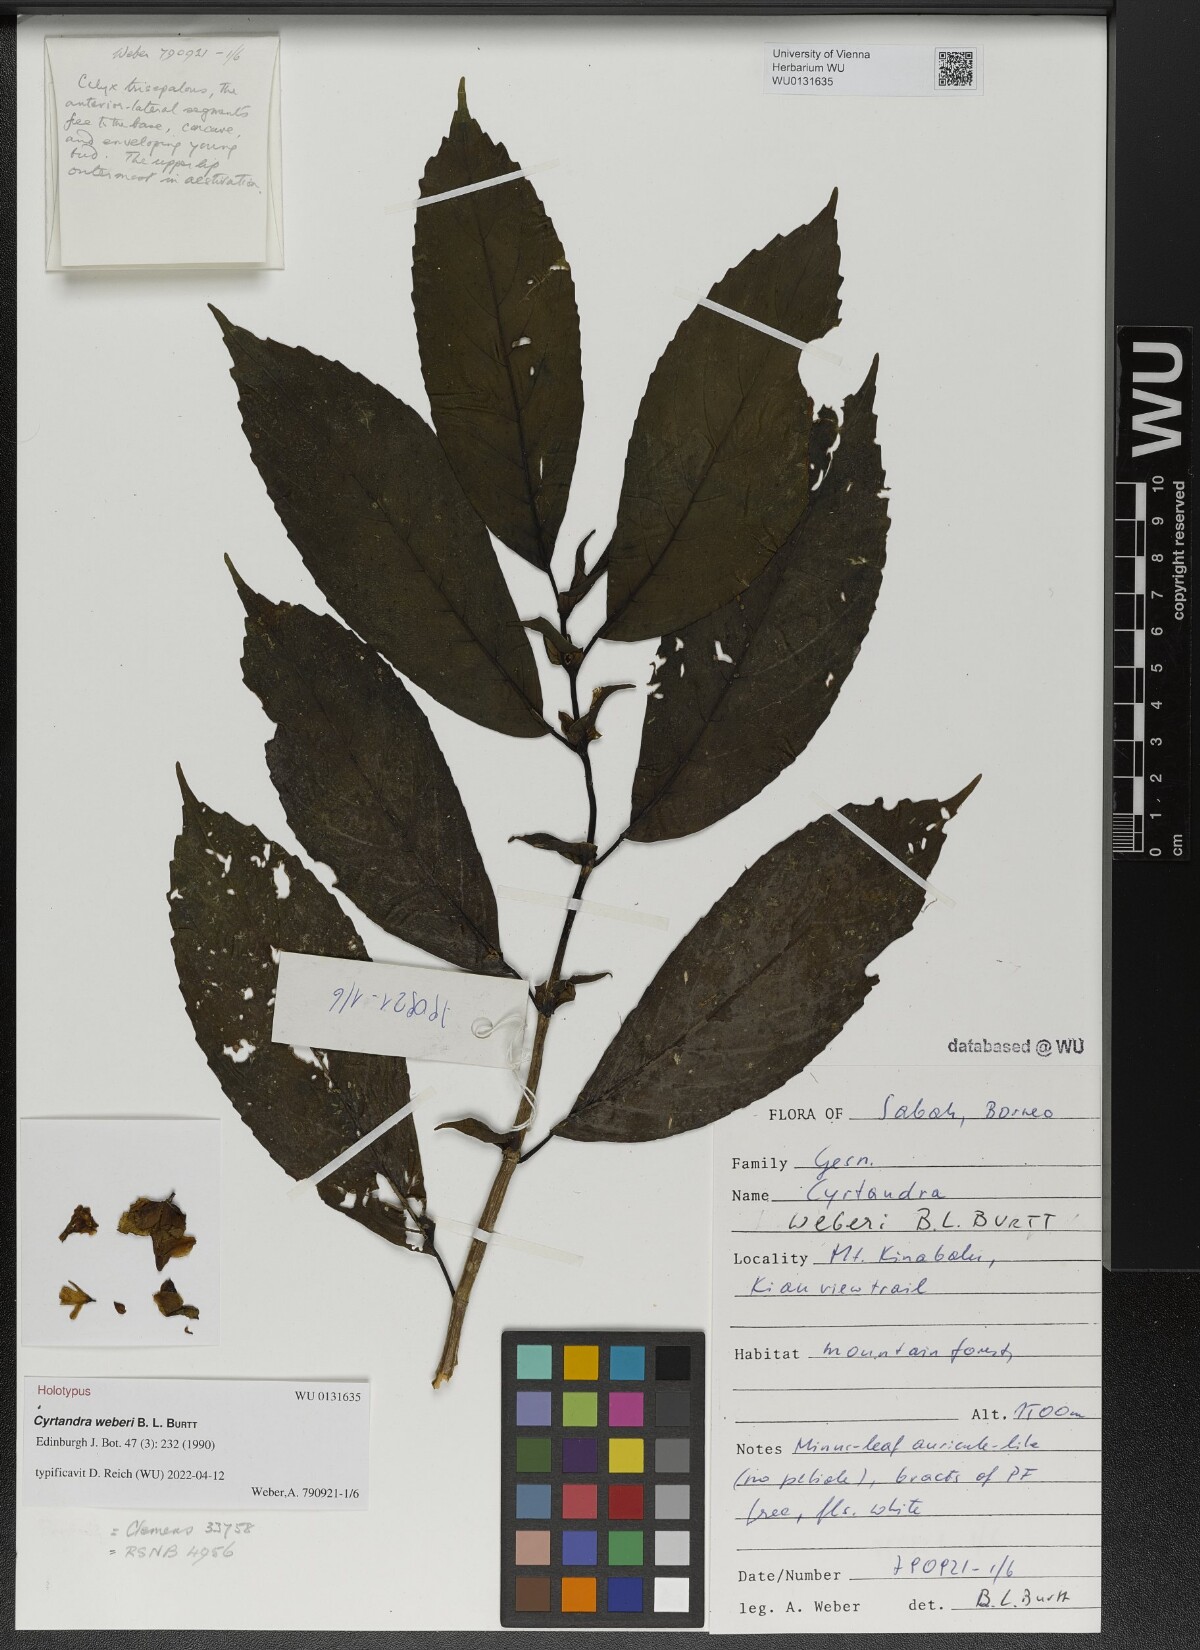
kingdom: Plantae
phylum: Tracheophyta
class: Magnoliopsida
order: Lamiales
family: Gesneriaceae
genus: Cyrtandra
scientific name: Cyrtandra weberi
